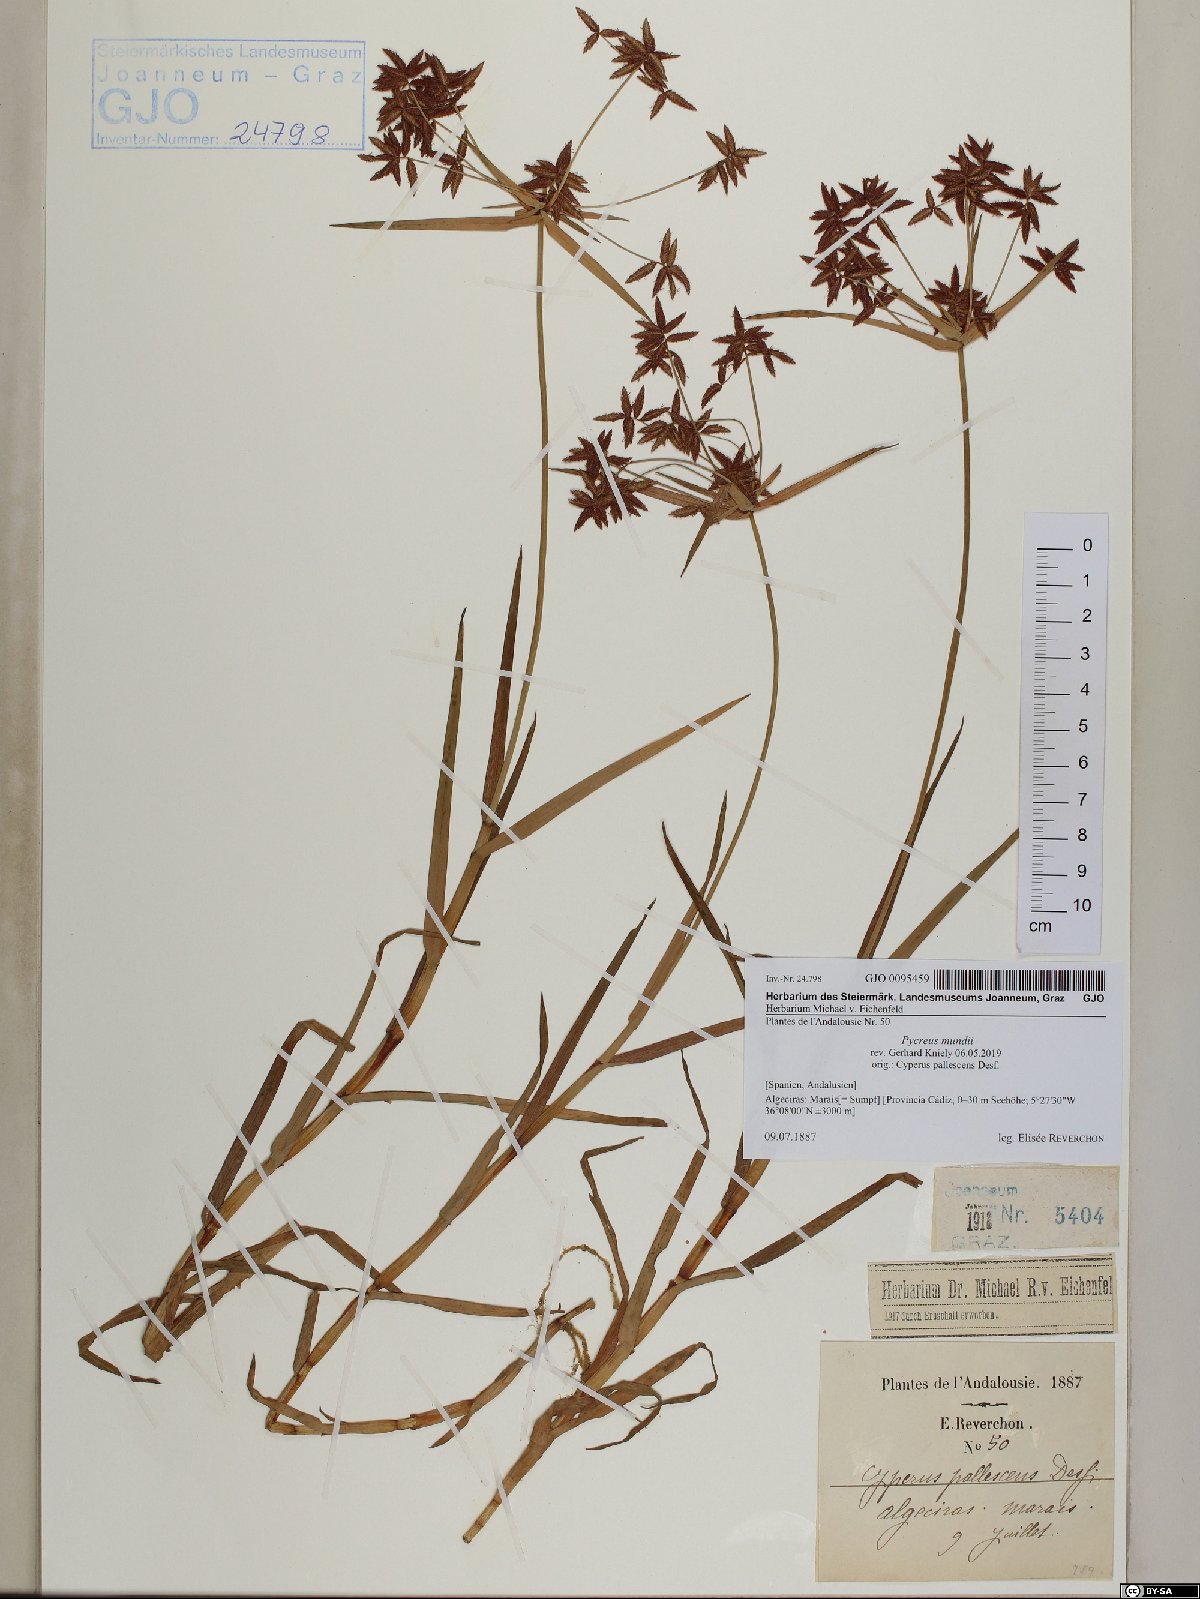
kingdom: Plantae
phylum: Tracheophyta
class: Liliopsida
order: Poales
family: Cyperaceae
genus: Cyperus
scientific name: Cyperus mundii
